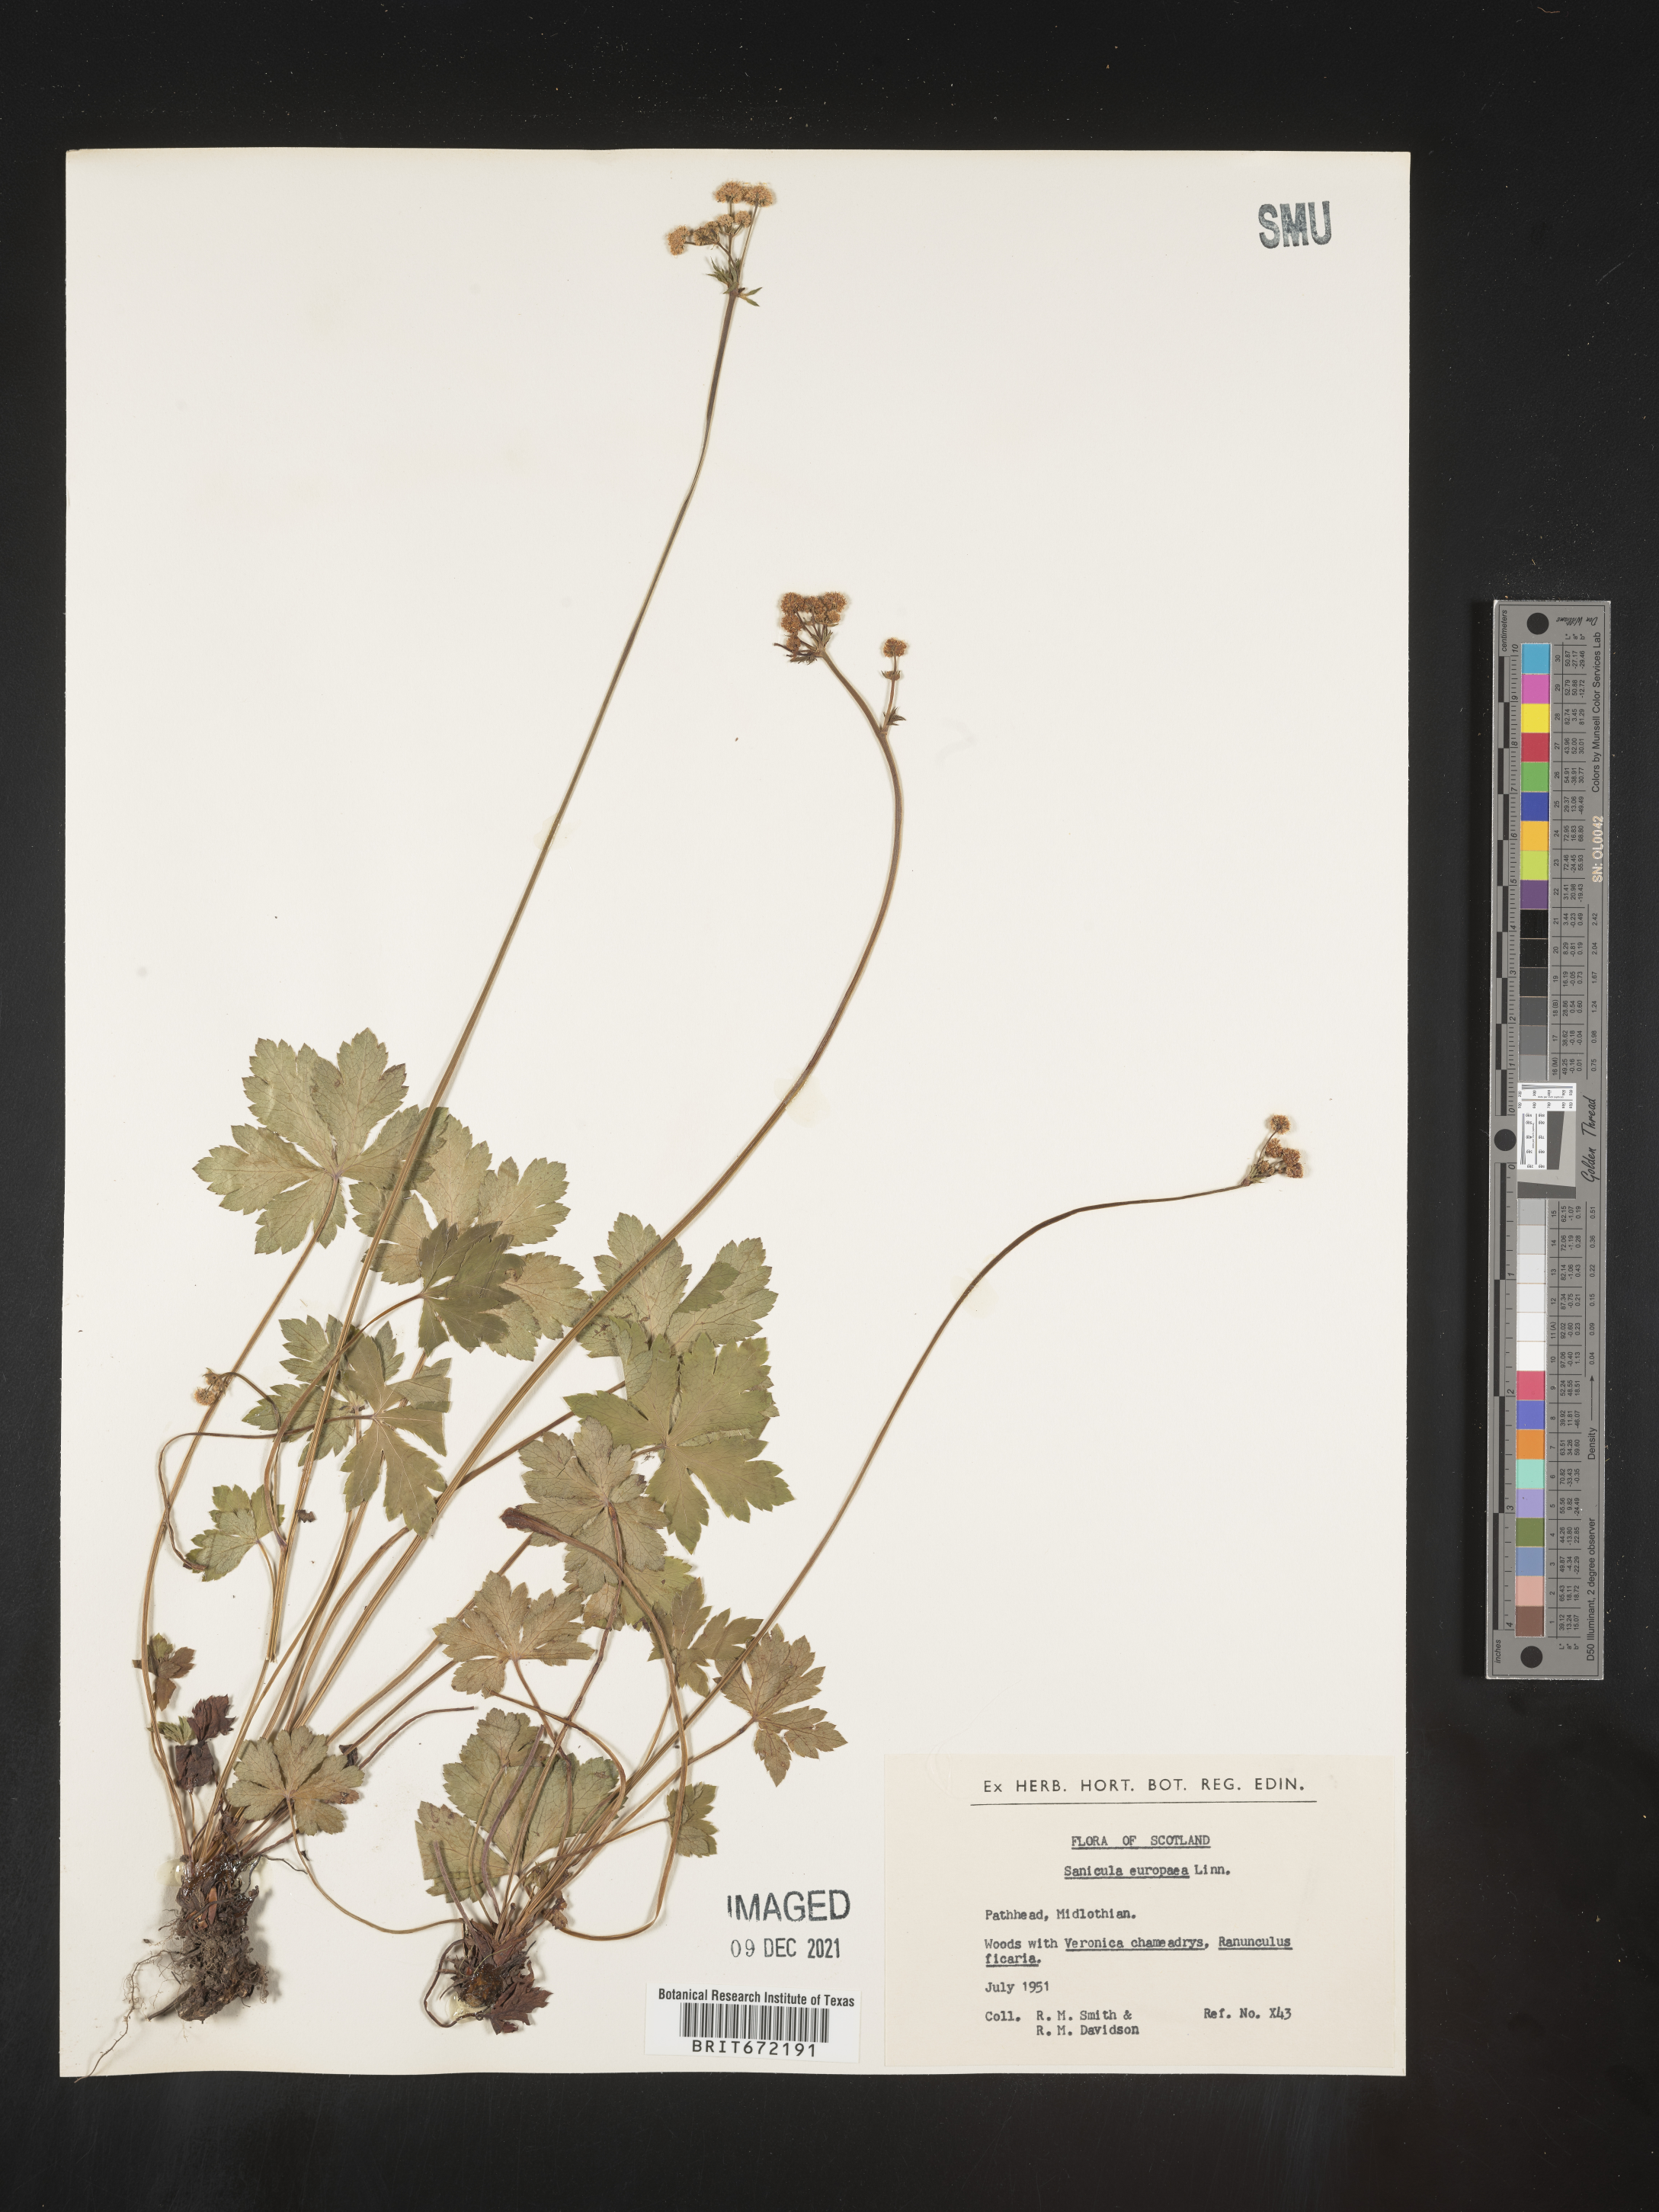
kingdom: Plantae
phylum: Tracheophyta
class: Magnoliopsida
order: Apiales
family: Apiaceae
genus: Sanicula
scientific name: Sanicula
